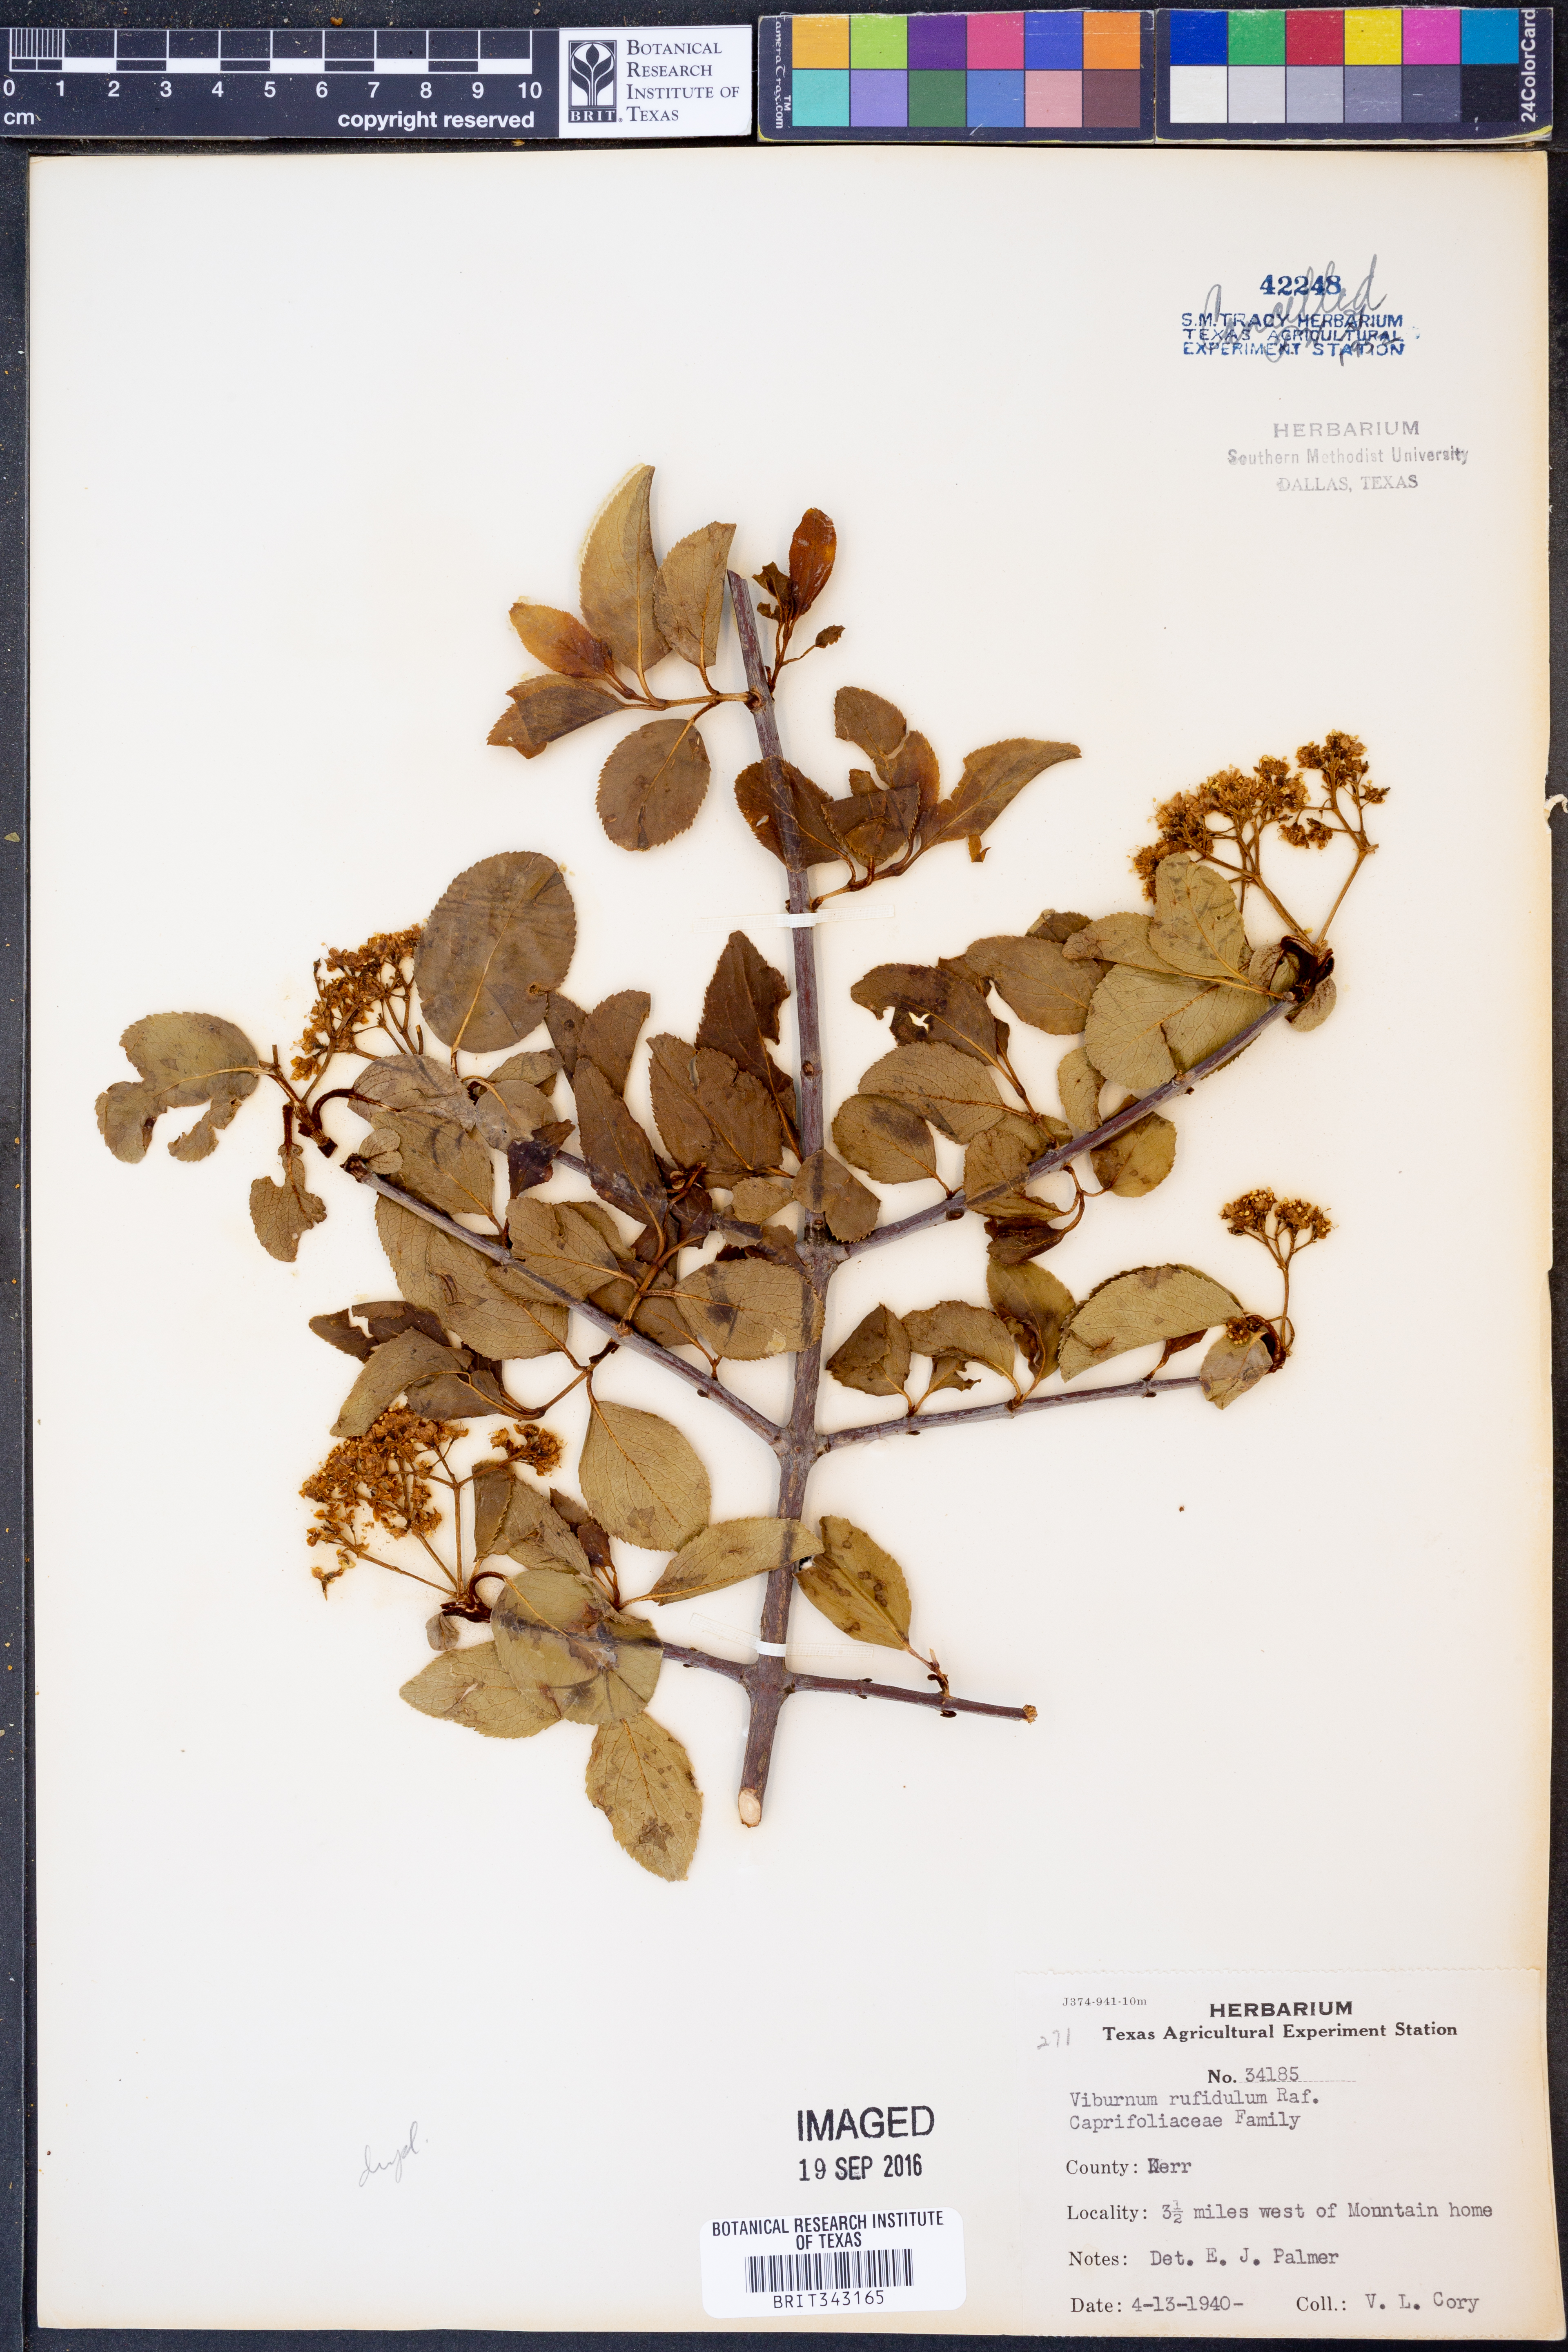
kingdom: Plantae
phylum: Tracheophyta
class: Magnoliopsida
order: Dipsacales
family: Viburnaceae
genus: Viburnum
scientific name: Viburnum rufidulum
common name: Blue haw
